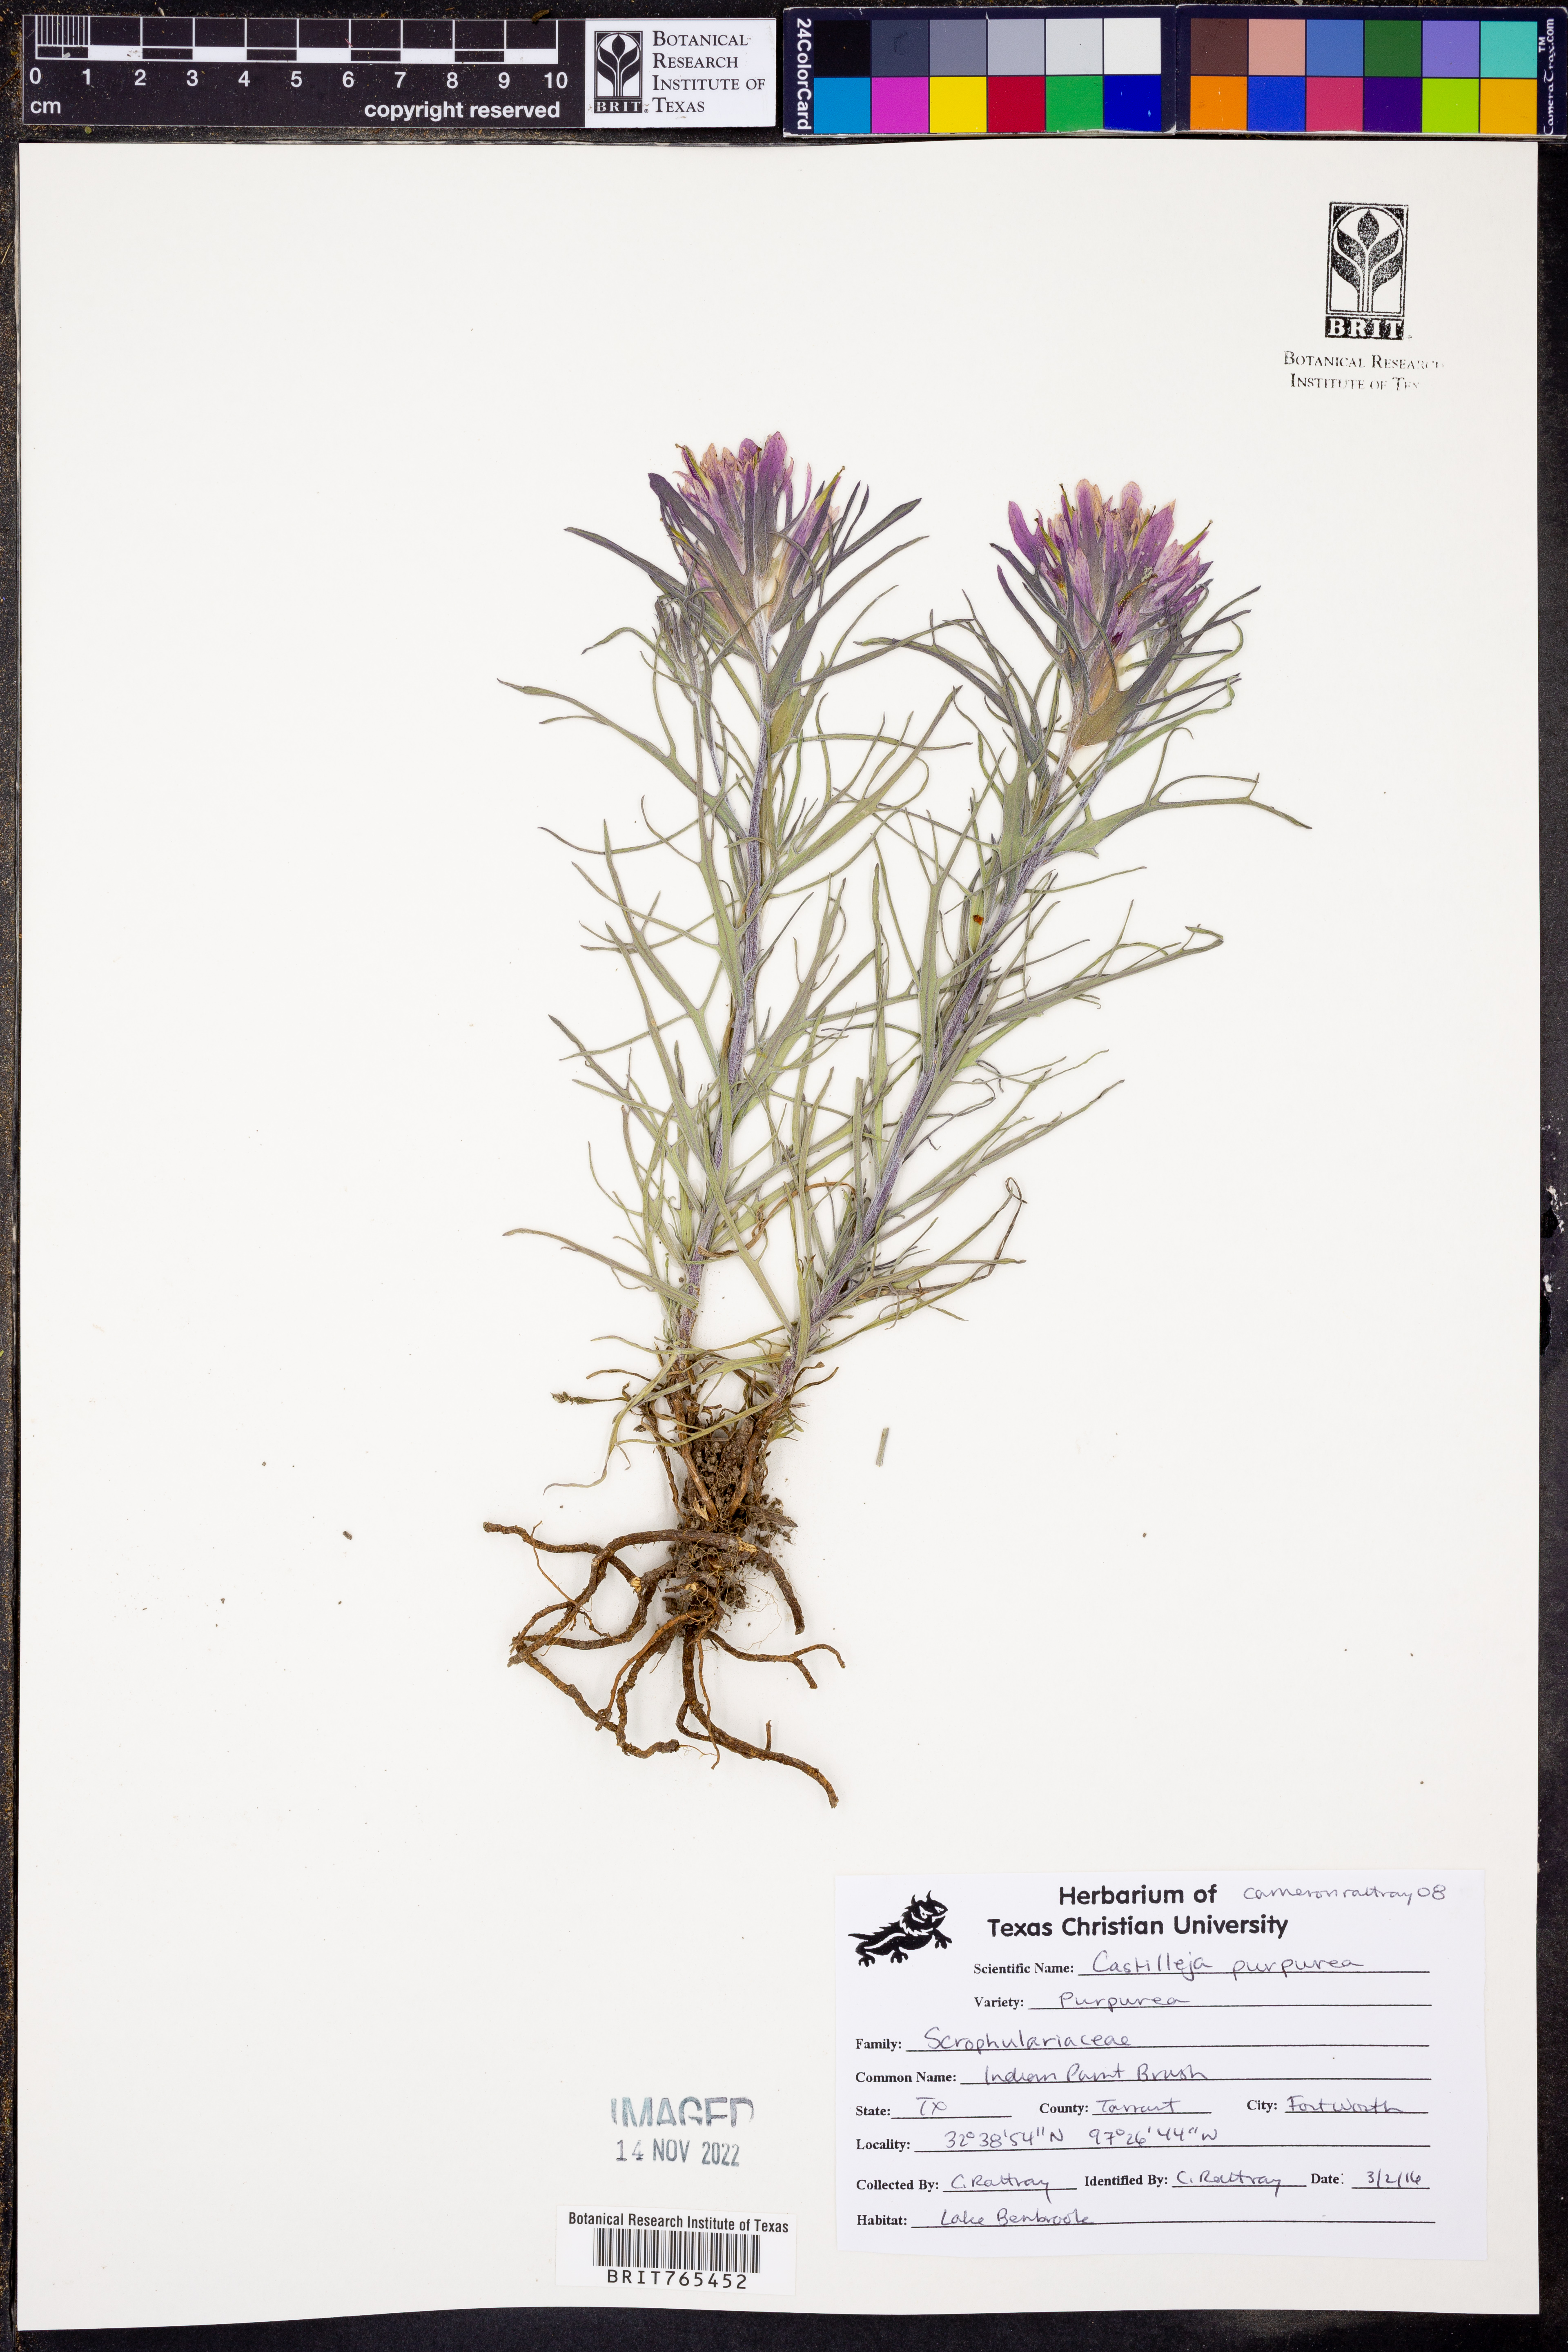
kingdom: Plantae
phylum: Tracheophyta
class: Magnoliopsida
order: Lamiales
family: Orobanchaceae
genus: Castilleja
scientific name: Castilleja purpurea
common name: Plains paintbrush
